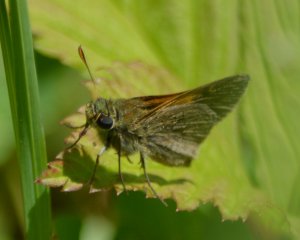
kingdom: Animalia
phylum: Arthropoda
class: Insecta
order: Lepidoptera
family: Hesperiidae
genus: Polites
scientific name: Polites themistocles
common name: Tawny-edged Skipper
